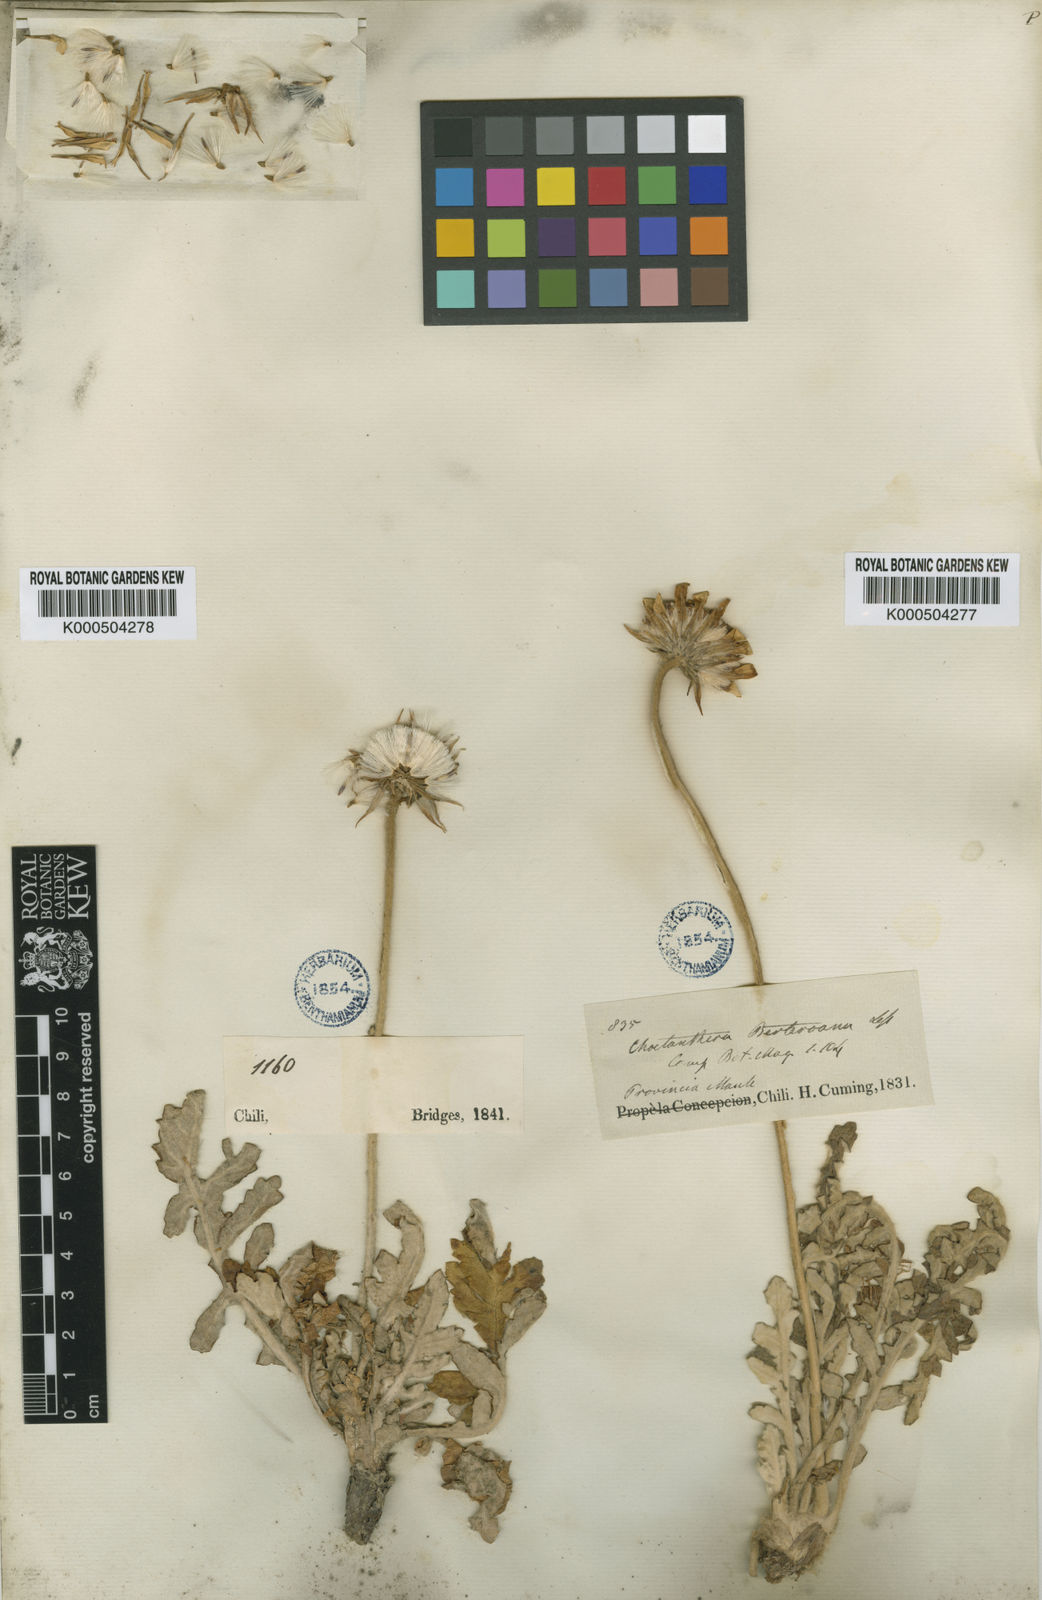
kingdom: Plantae
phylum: Tracheophyta
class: Magnoliopsida
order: Asterales
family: Asteraceae
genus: Trichocline
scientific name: Trichocline aurea
